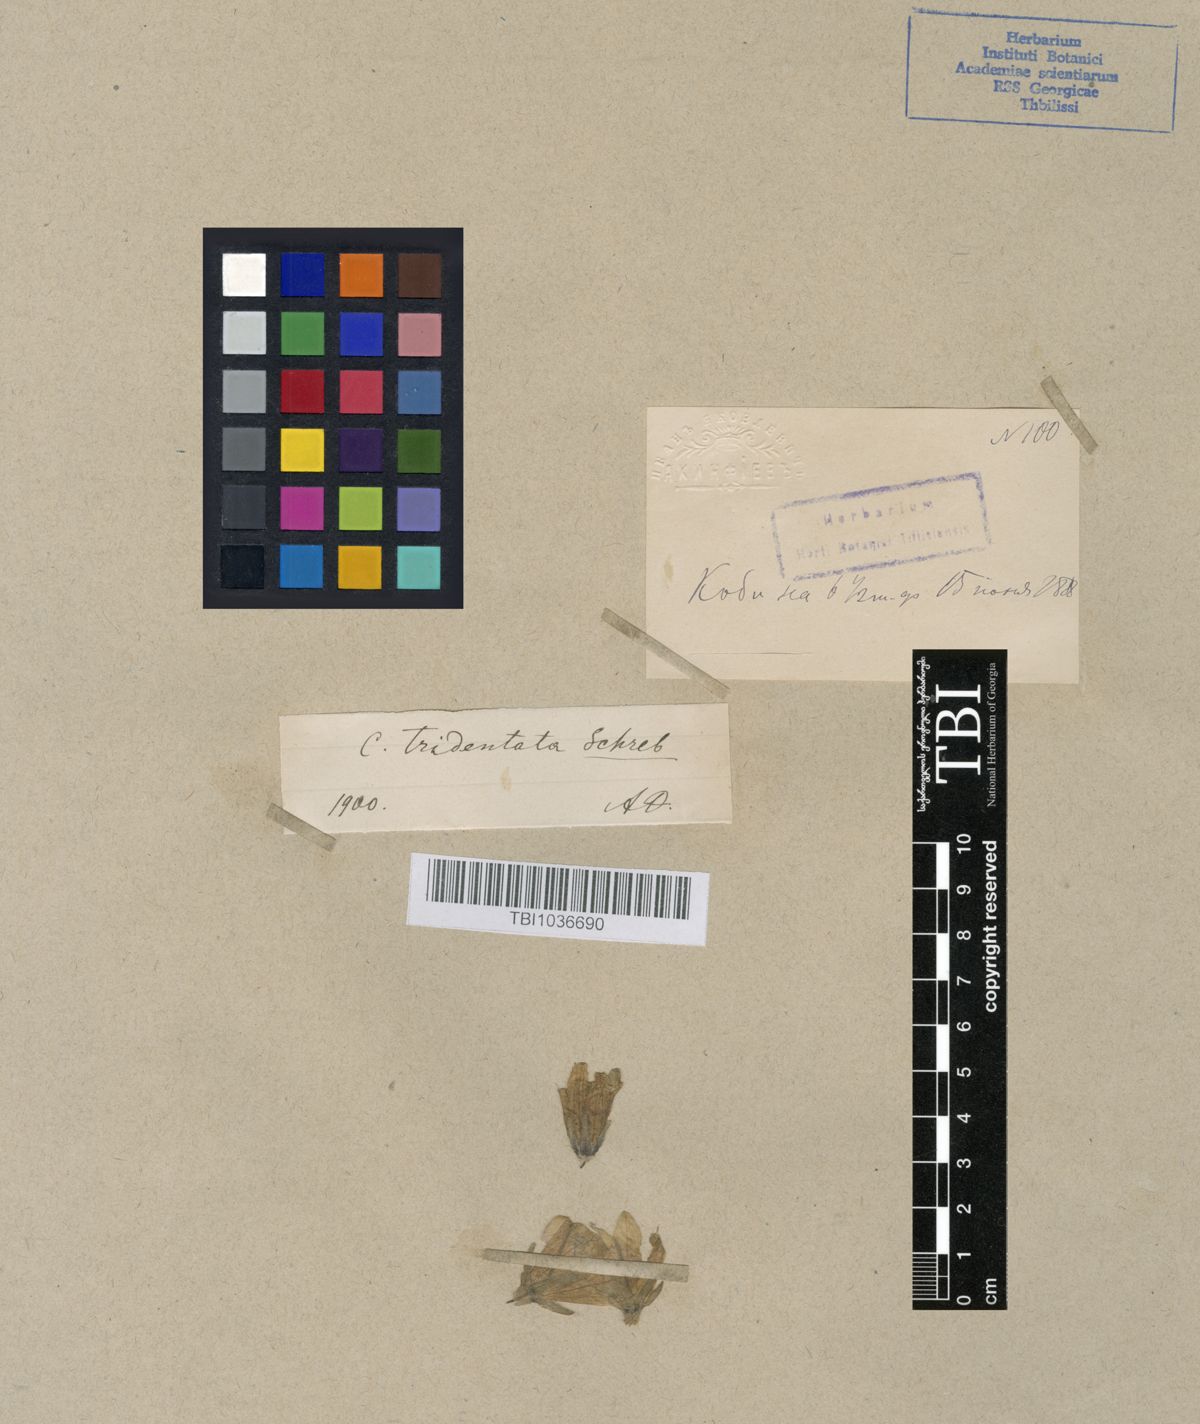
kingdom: Plantae
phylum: Tracheophyta
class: Magnoliopsida
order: Asterales
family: Campanulaceae
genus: Campanula
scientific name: Campanula tridentata
